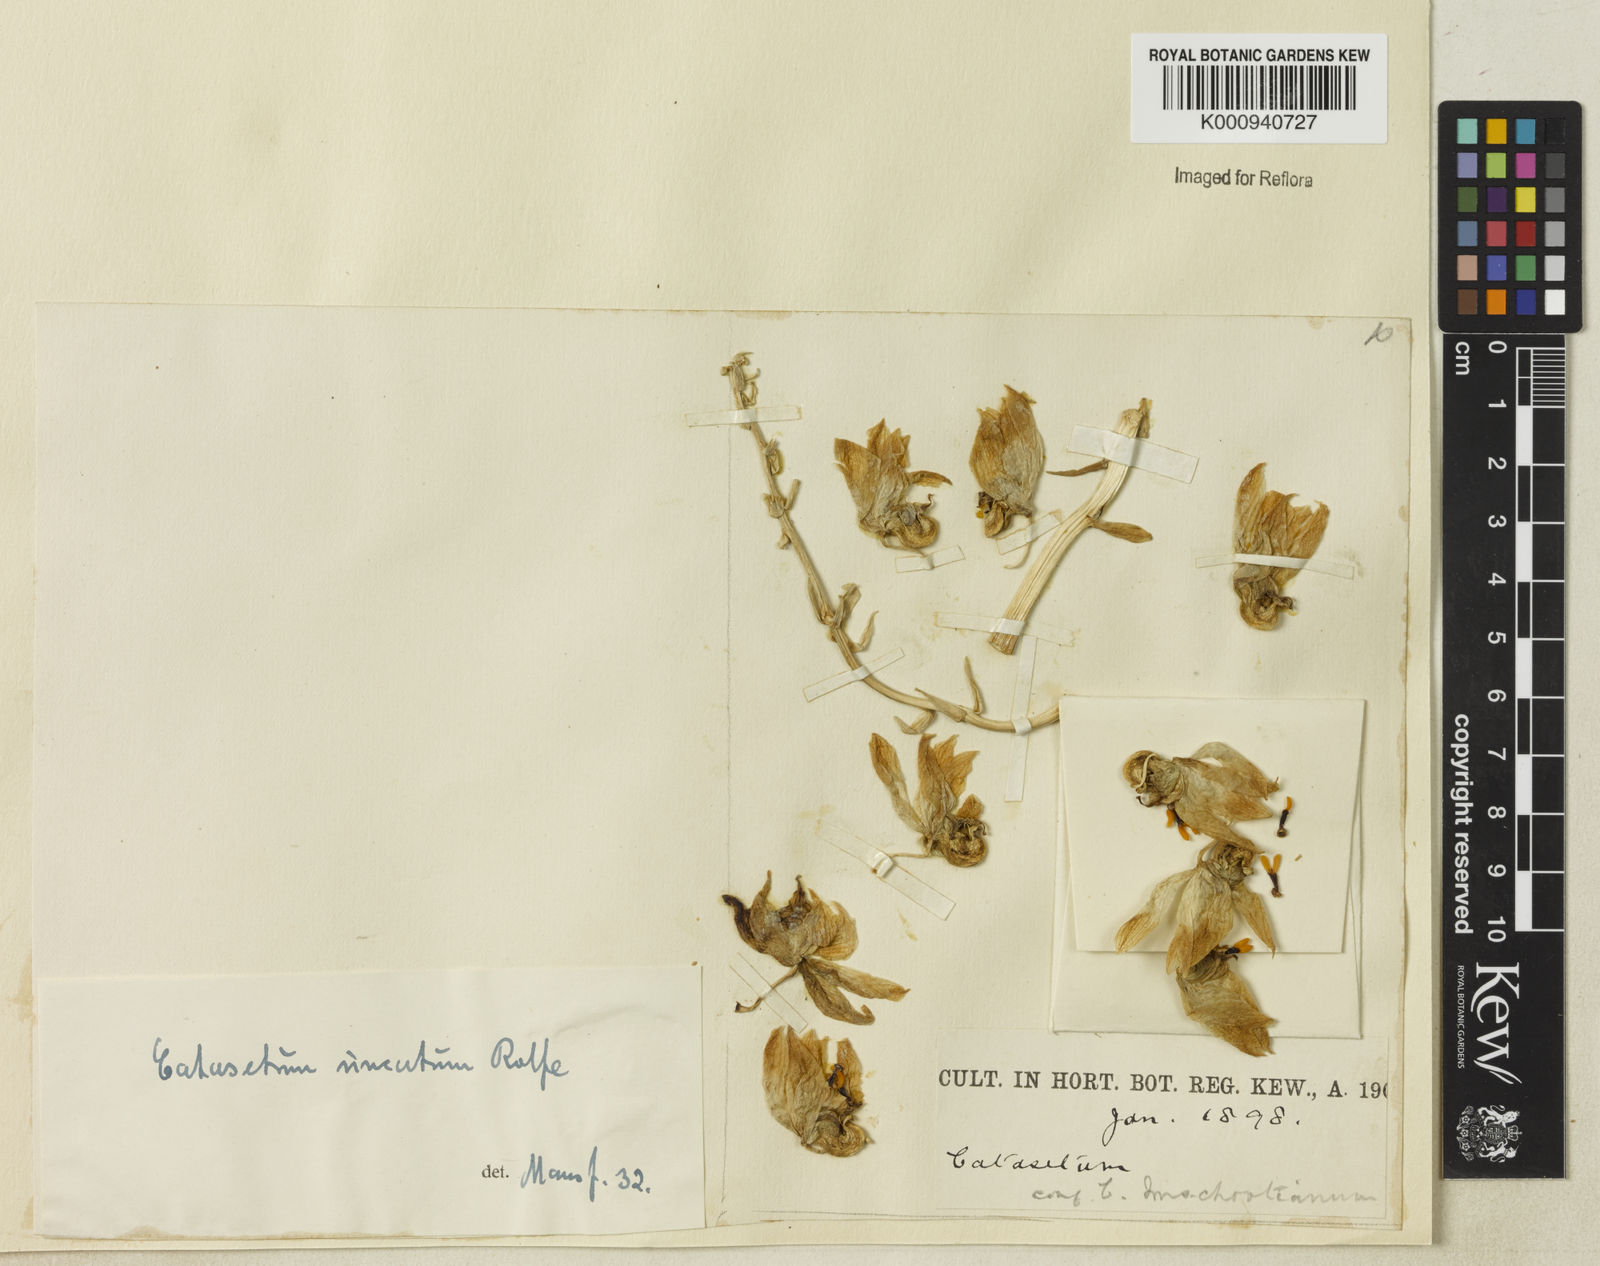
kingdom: Plantae
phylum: Tracheophyta
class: Liliopsida
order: Asparagales
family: Orchidaceae
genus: Catasetum
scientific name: Catasetum uncatum
